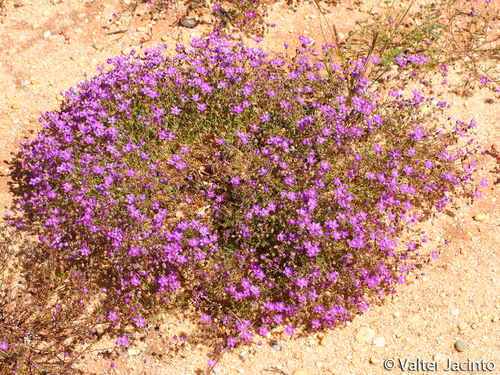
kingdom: Plantae
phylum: Tracheophyta
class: Magnoliopsida
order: Caryophyllales
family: Caryophyllaceae
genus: Spergularia
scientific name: Spergularia rubra
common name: Red sand-spurrey
